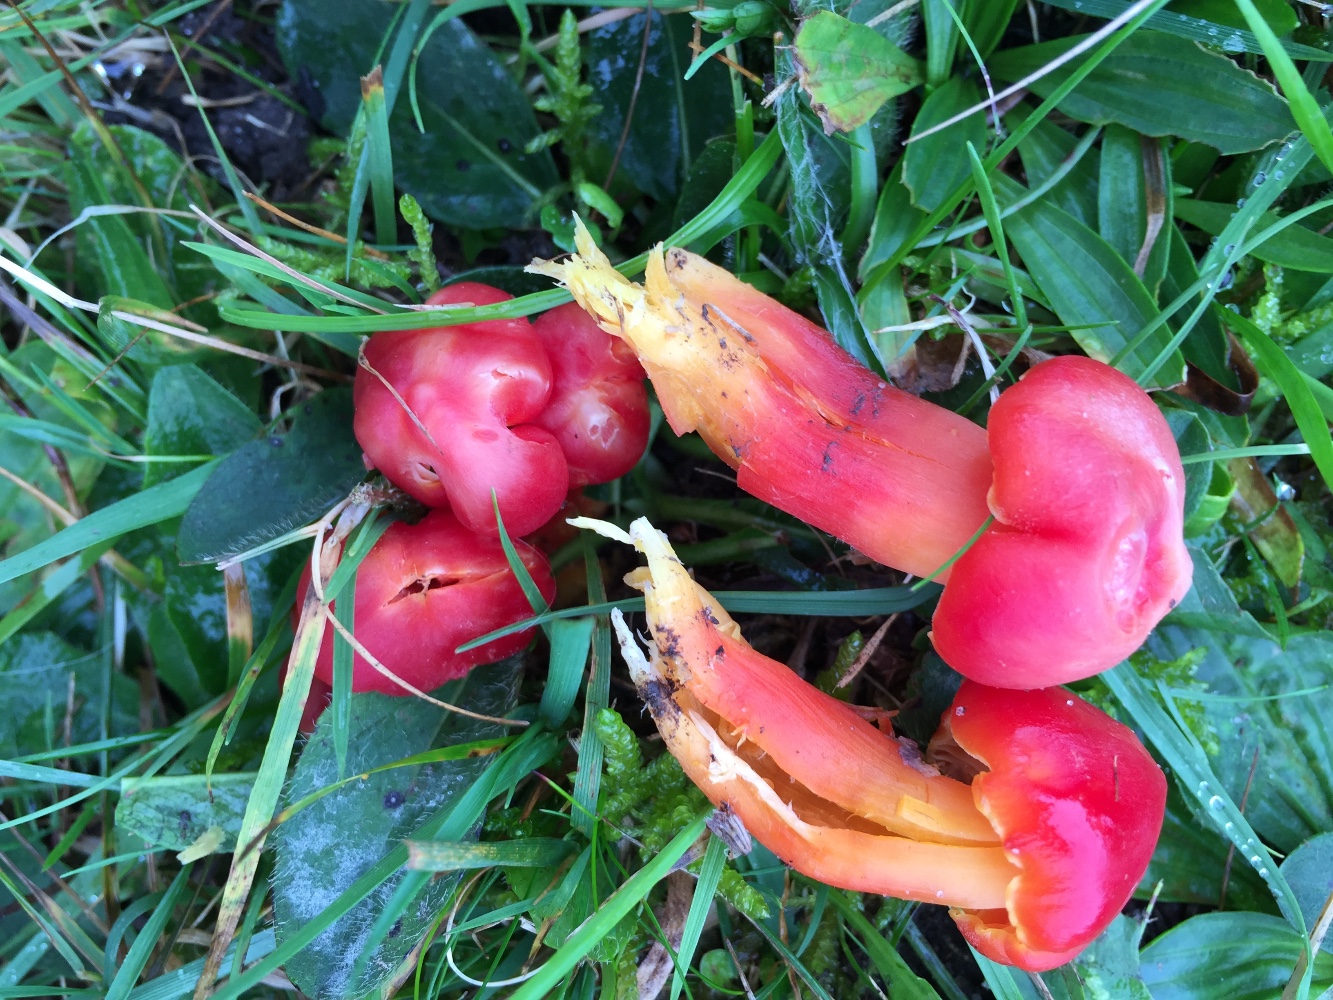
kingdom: Fungi
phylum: Basidiomycota
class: Agaricomycetes
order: Agaricales
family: Hygrophoraceae
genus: Hygrocybe
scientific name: Hygrocybe splendidissima
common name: knaldrød vokshat
